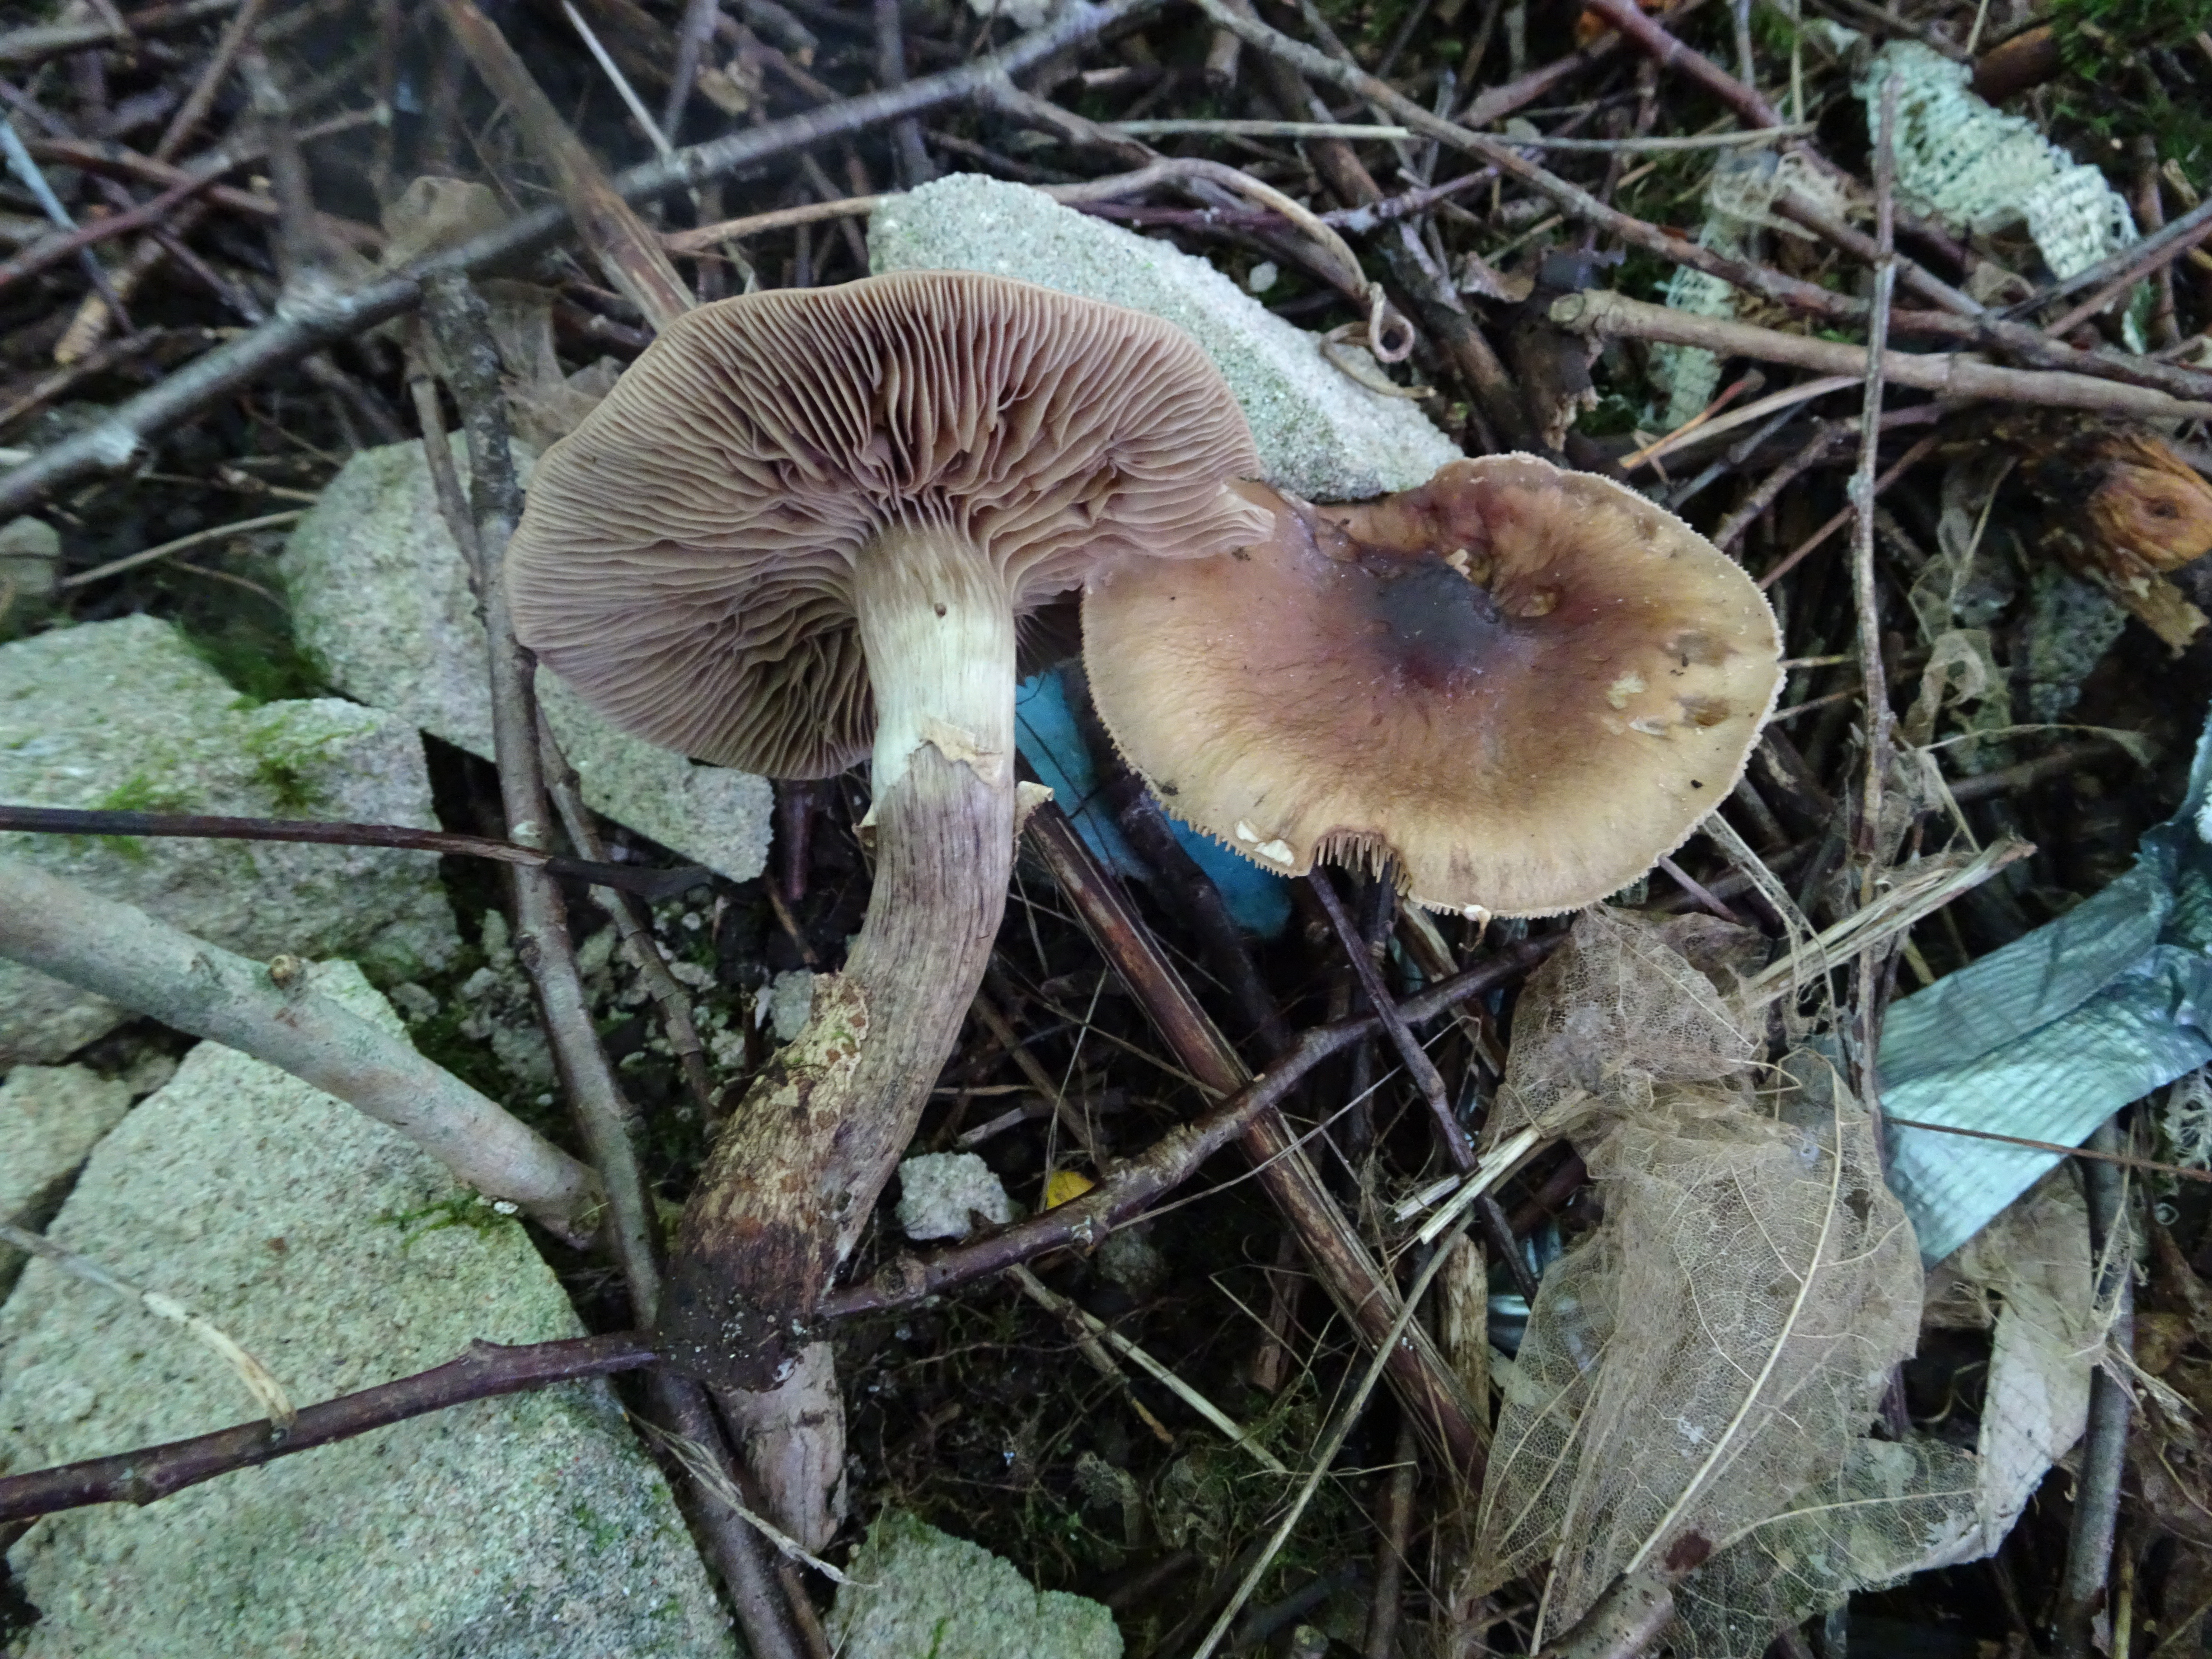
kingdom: Fungi
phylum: Basidiomycota
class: Agaricomycetes
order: Agaricales
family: Tubariaceae
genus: Cyclocybe
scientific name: Cyclocybe erebia
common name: Dark fieldcap
